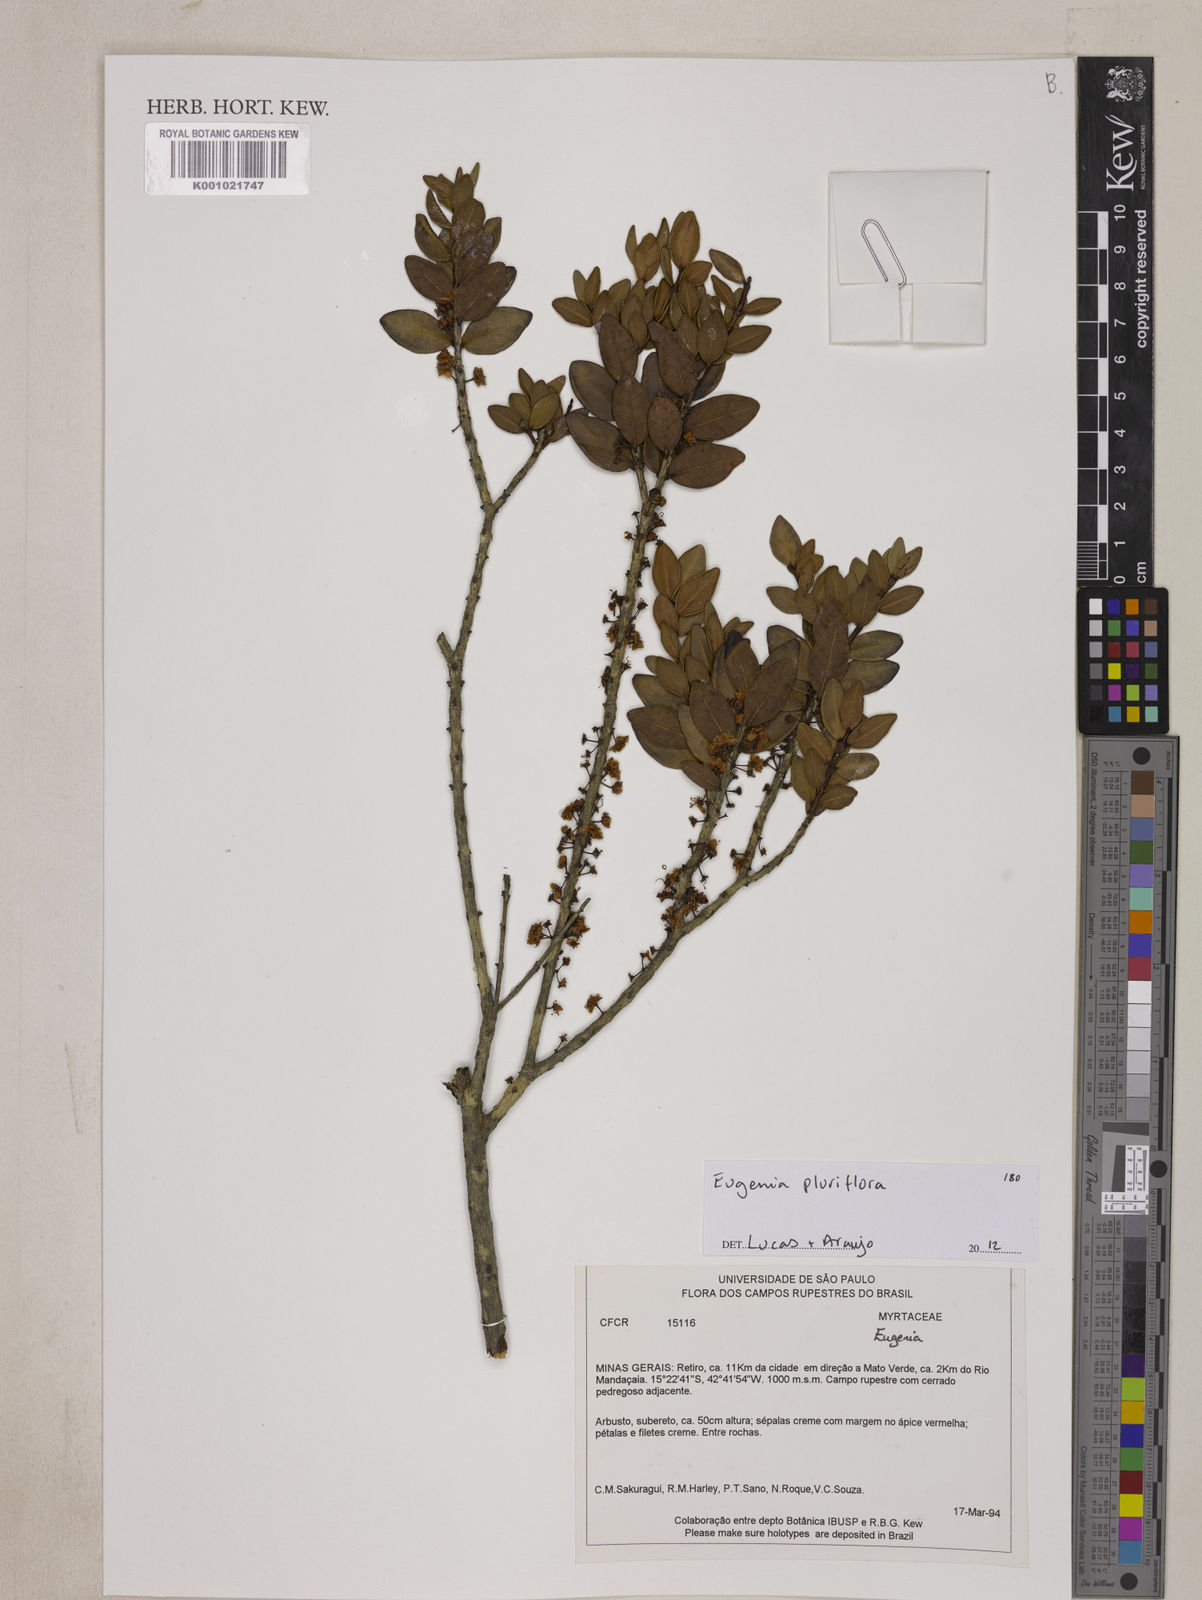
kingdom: Plantae
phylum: Tracheophyta
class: Magnoliopsida
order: Myrtales
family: Myrtaceae
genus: Eugenia
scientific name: Eugenia pluriflora
